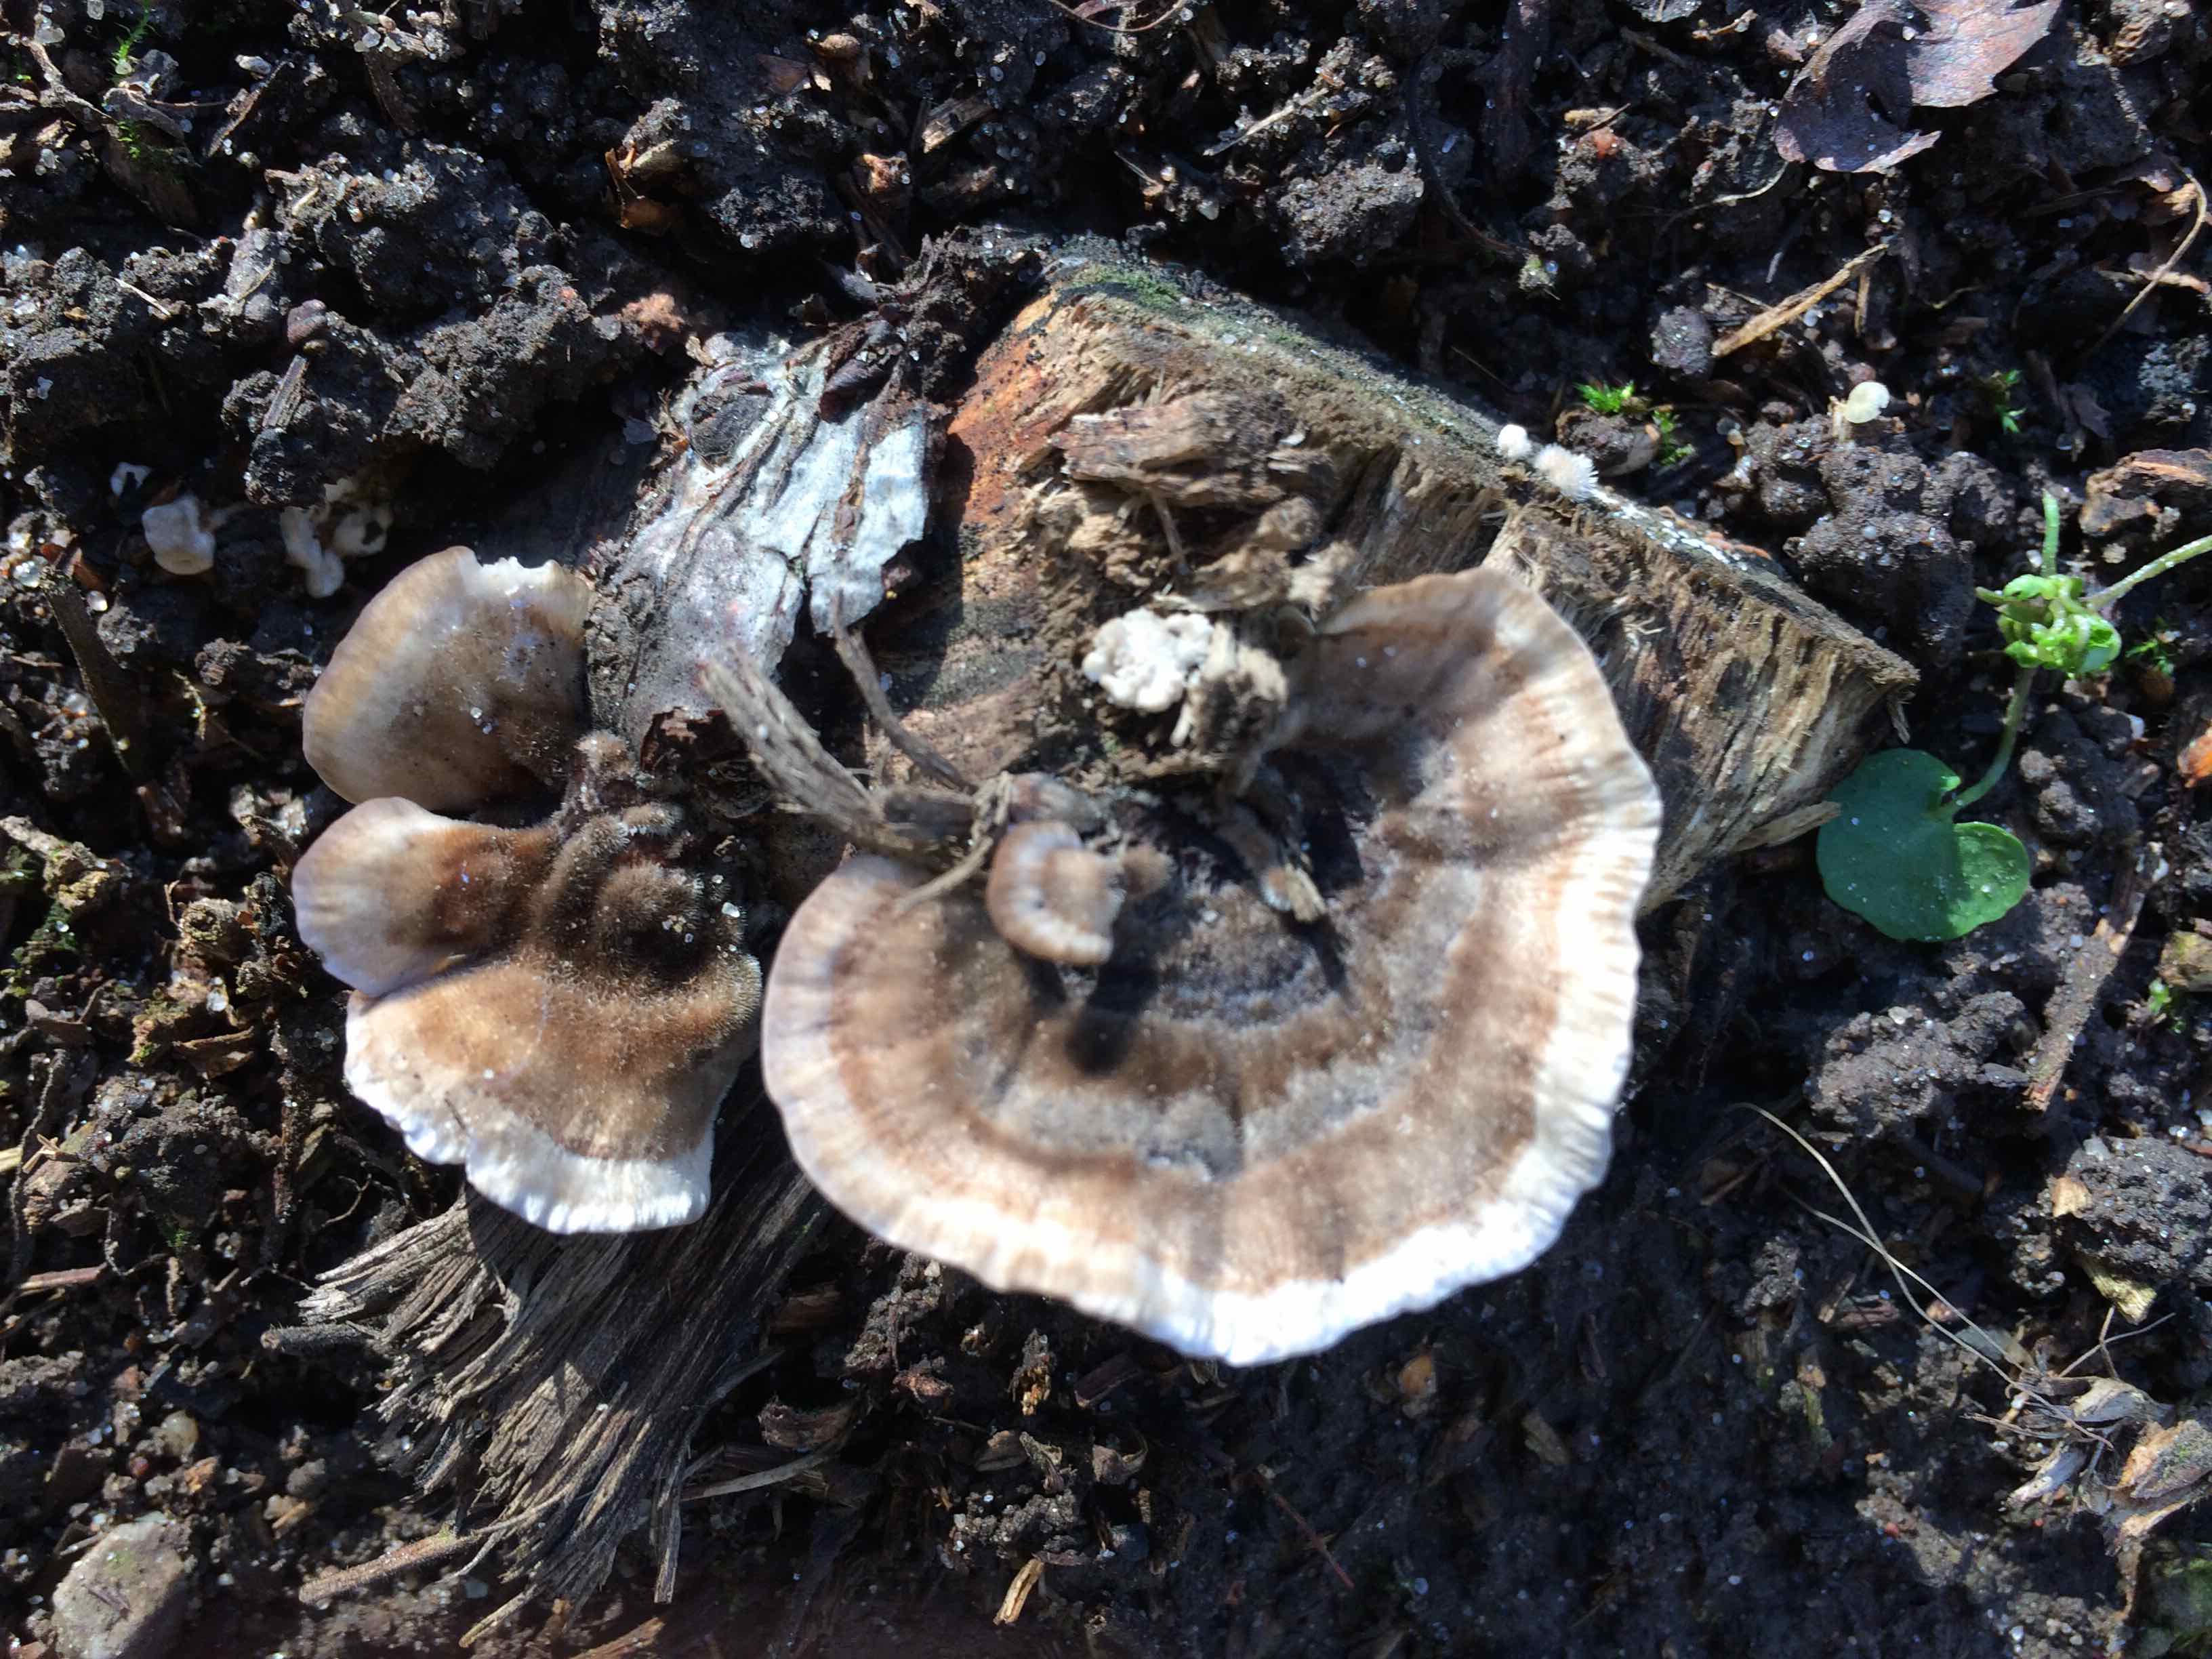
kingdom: Fungi
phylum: Basidiomycota
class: Agaricomycetes
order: Polyporales
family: Polyporaceae
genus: Trametes
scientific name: Trametes versicolor
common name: broget læderporesvamp
